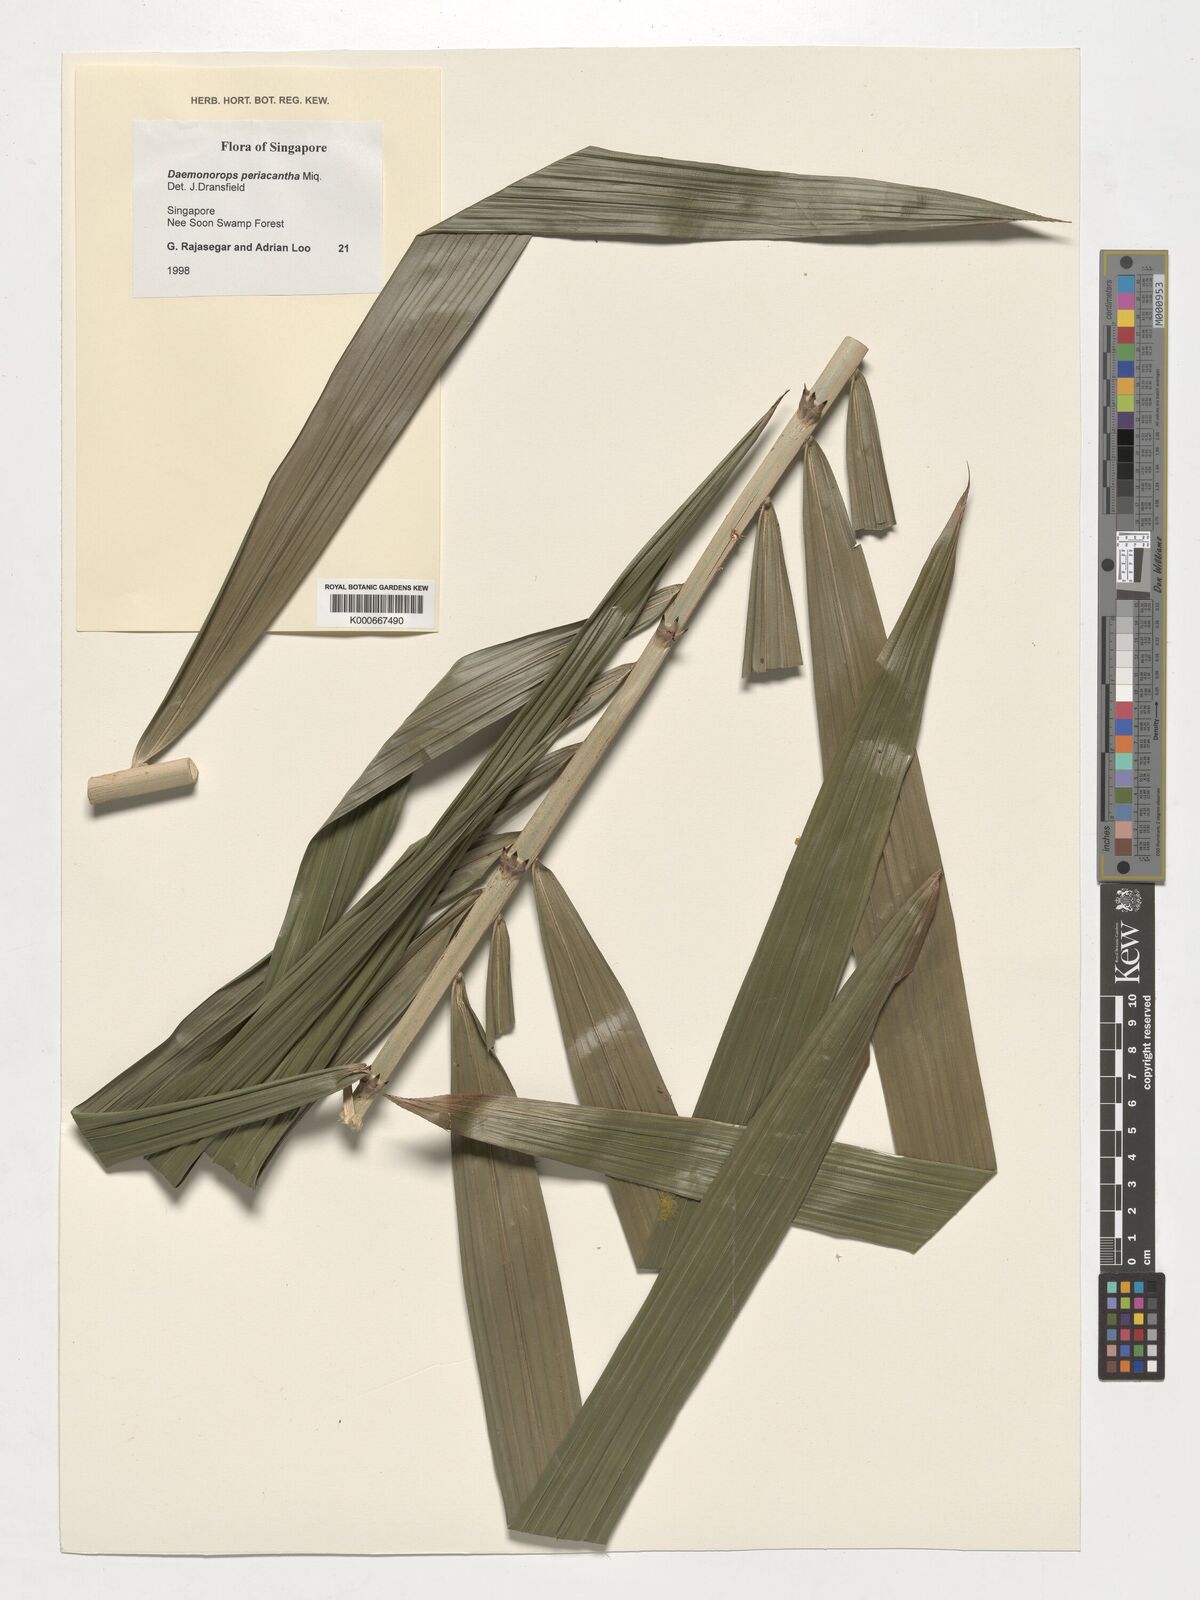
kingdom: Plantae
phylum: Tracheophyta
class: Liliopsida
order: Arecales
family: Arecaceae
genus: Calamus
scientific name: Calamus periacanthus
